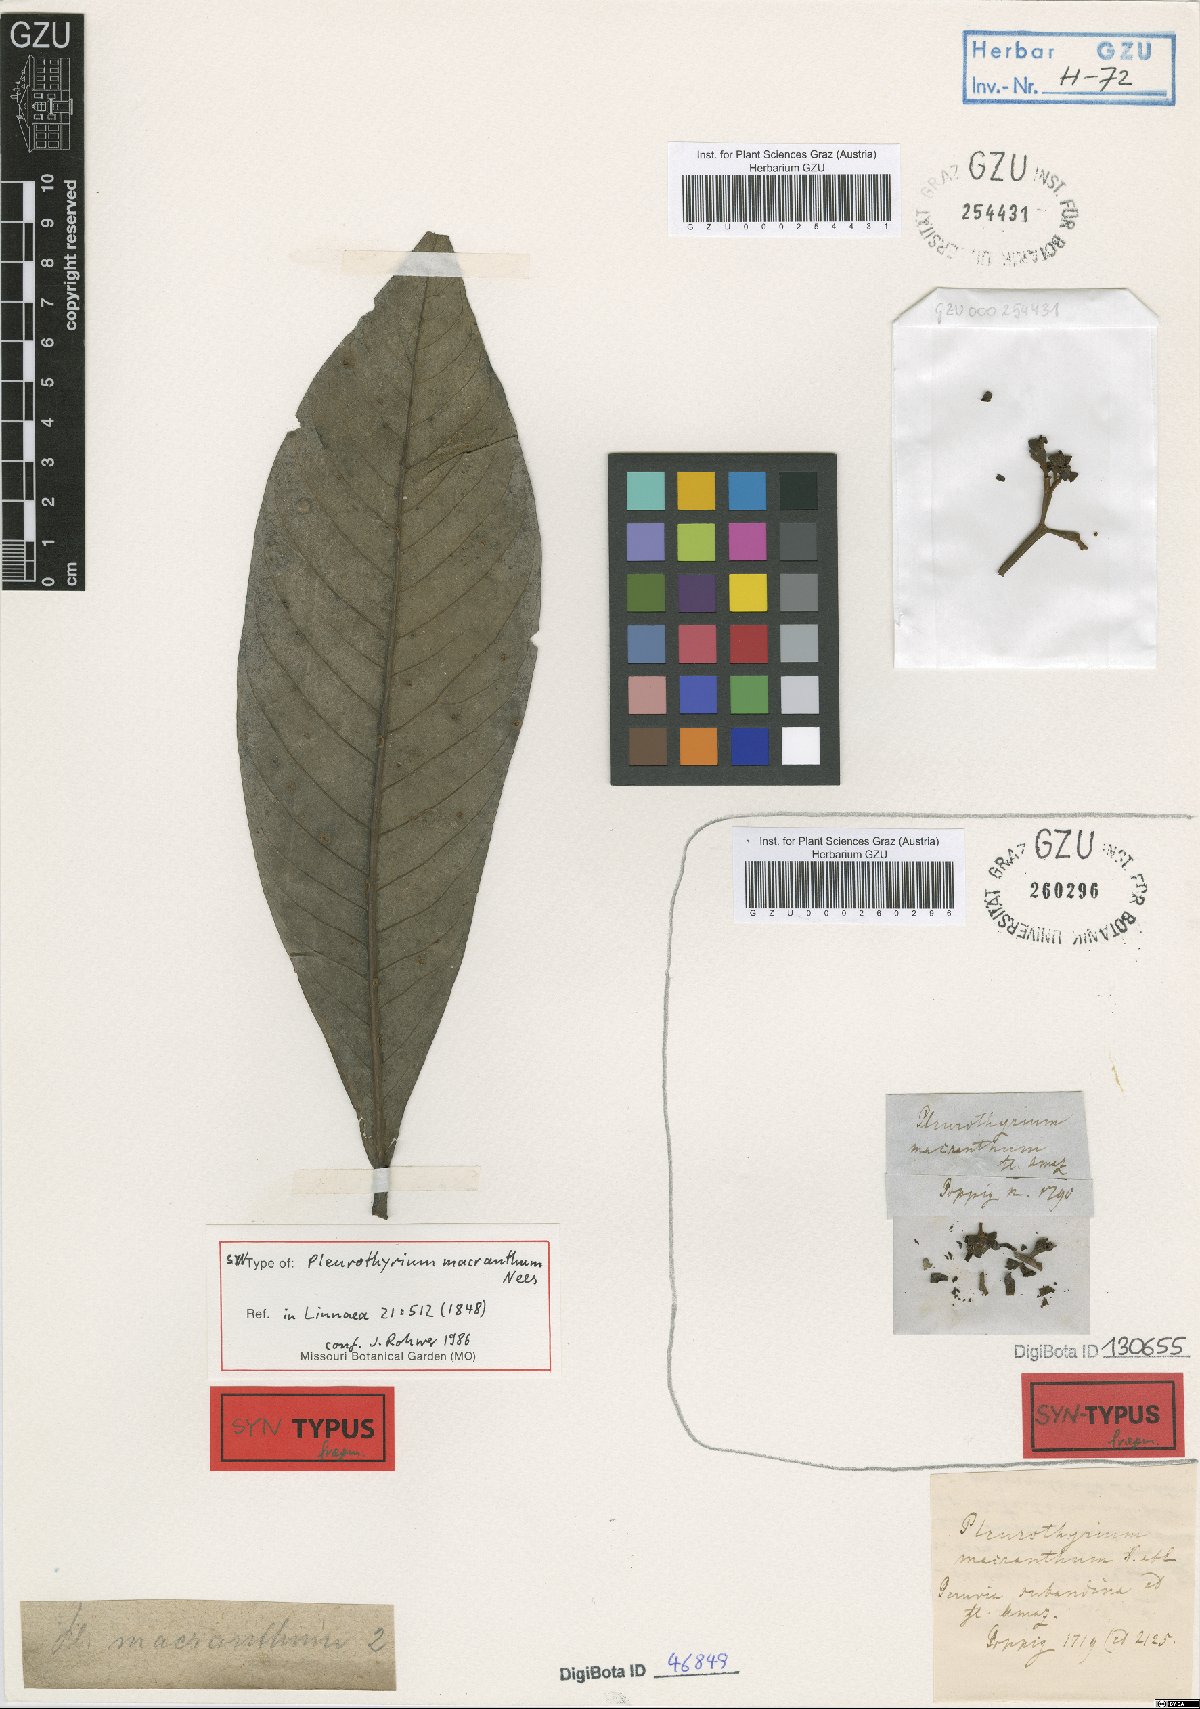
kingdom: Plantae
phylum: Tracheophyta
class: Magnoliopsida
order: Laurales
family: Lauraceae
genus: Pleurothyrium
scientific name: Pleurothyrium cuneifolium
